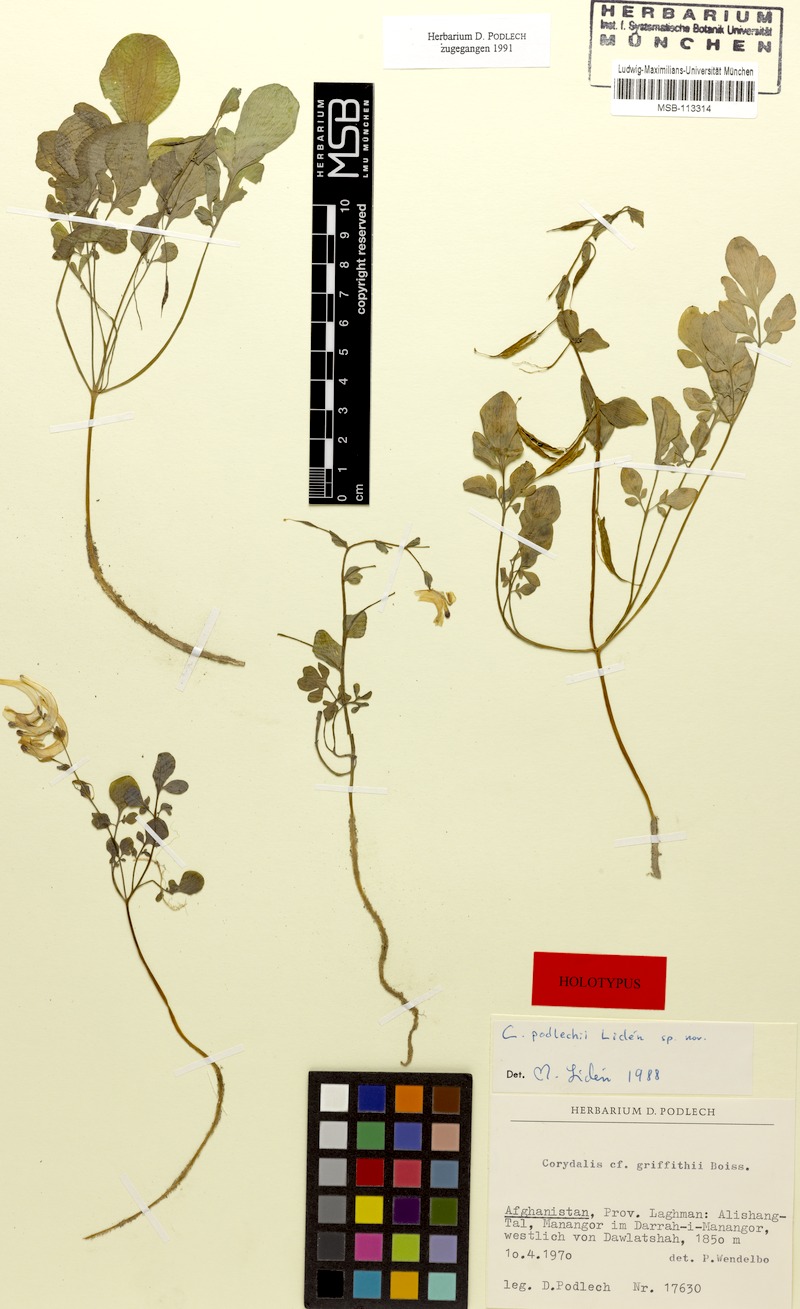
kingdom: Plantae
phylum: Tracheophyta
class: Magnoliopsida
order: Ranunculales
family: Papaveraceae
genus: Corydalis
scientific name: Corydalis podlechii
